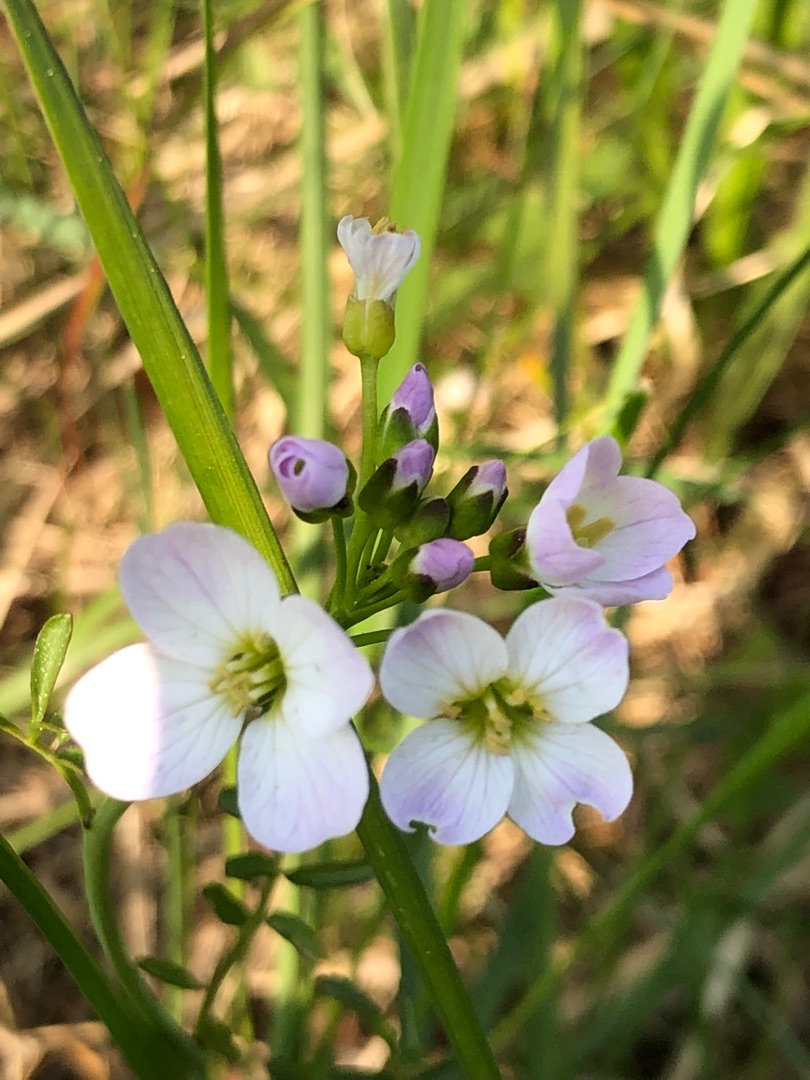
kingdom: Plantae
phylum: Tracheophyta
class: Magnoliopsida
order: Brassicales
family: Brassicaceae
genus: Cardamine
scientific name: Cardamine pratensis
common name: Engkarse
